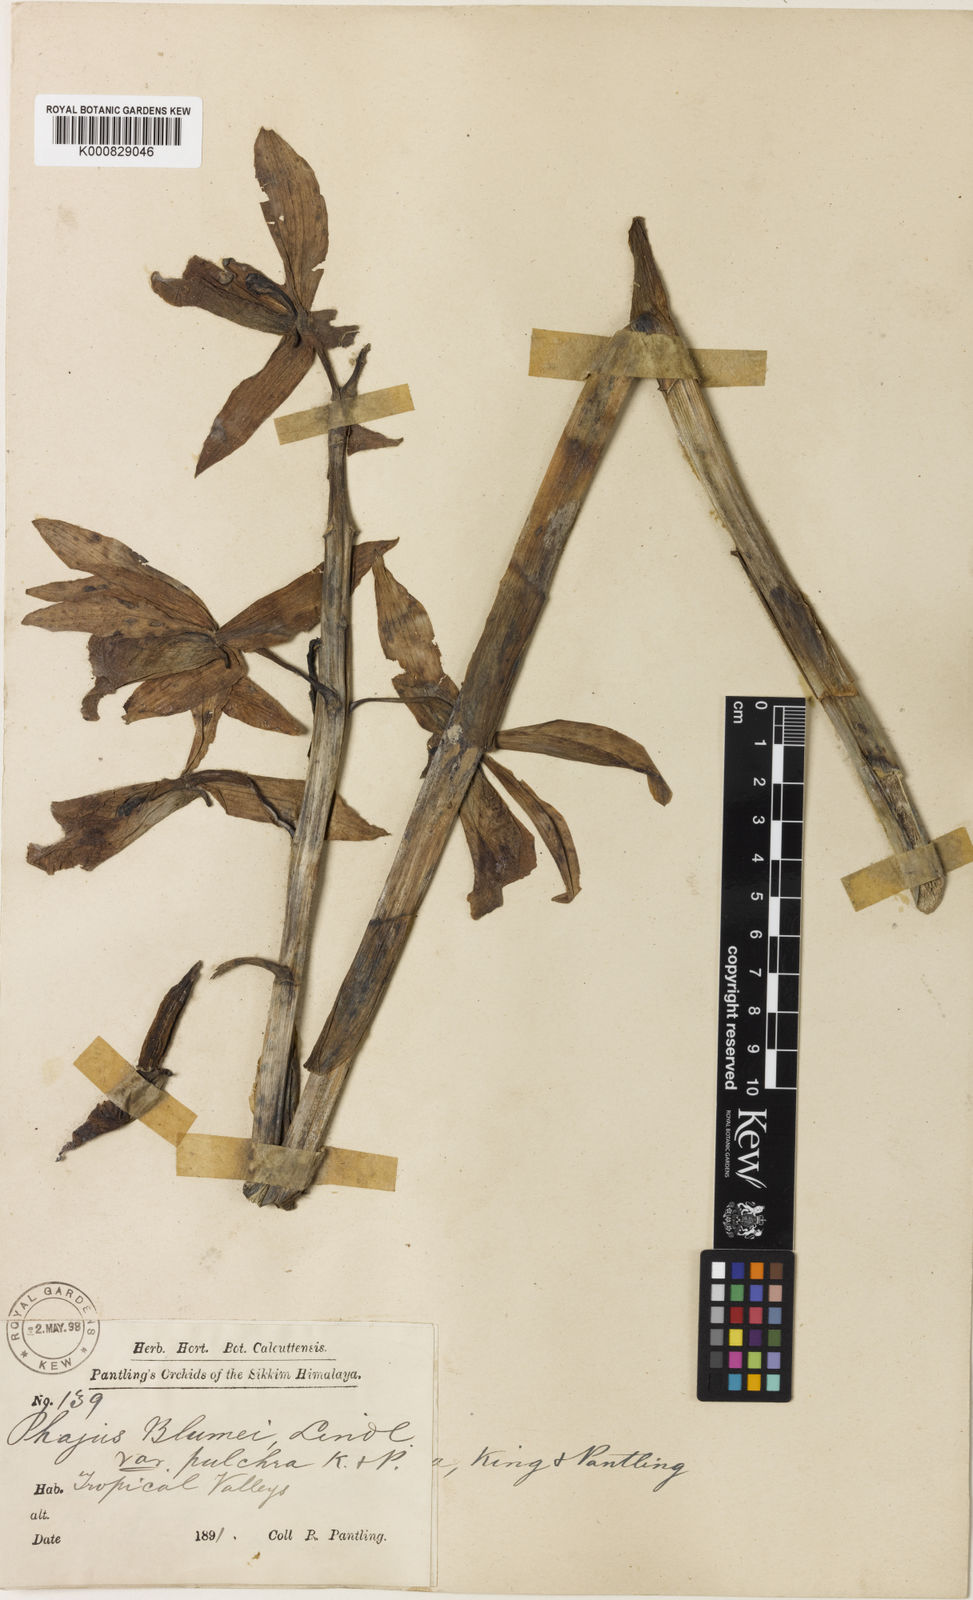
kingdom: Plantae
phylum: Tracheophyta
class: Liliopsida
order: Asparagales
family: Orchidaceae
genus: Calanthe
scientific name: Calanthe tankervilleae
